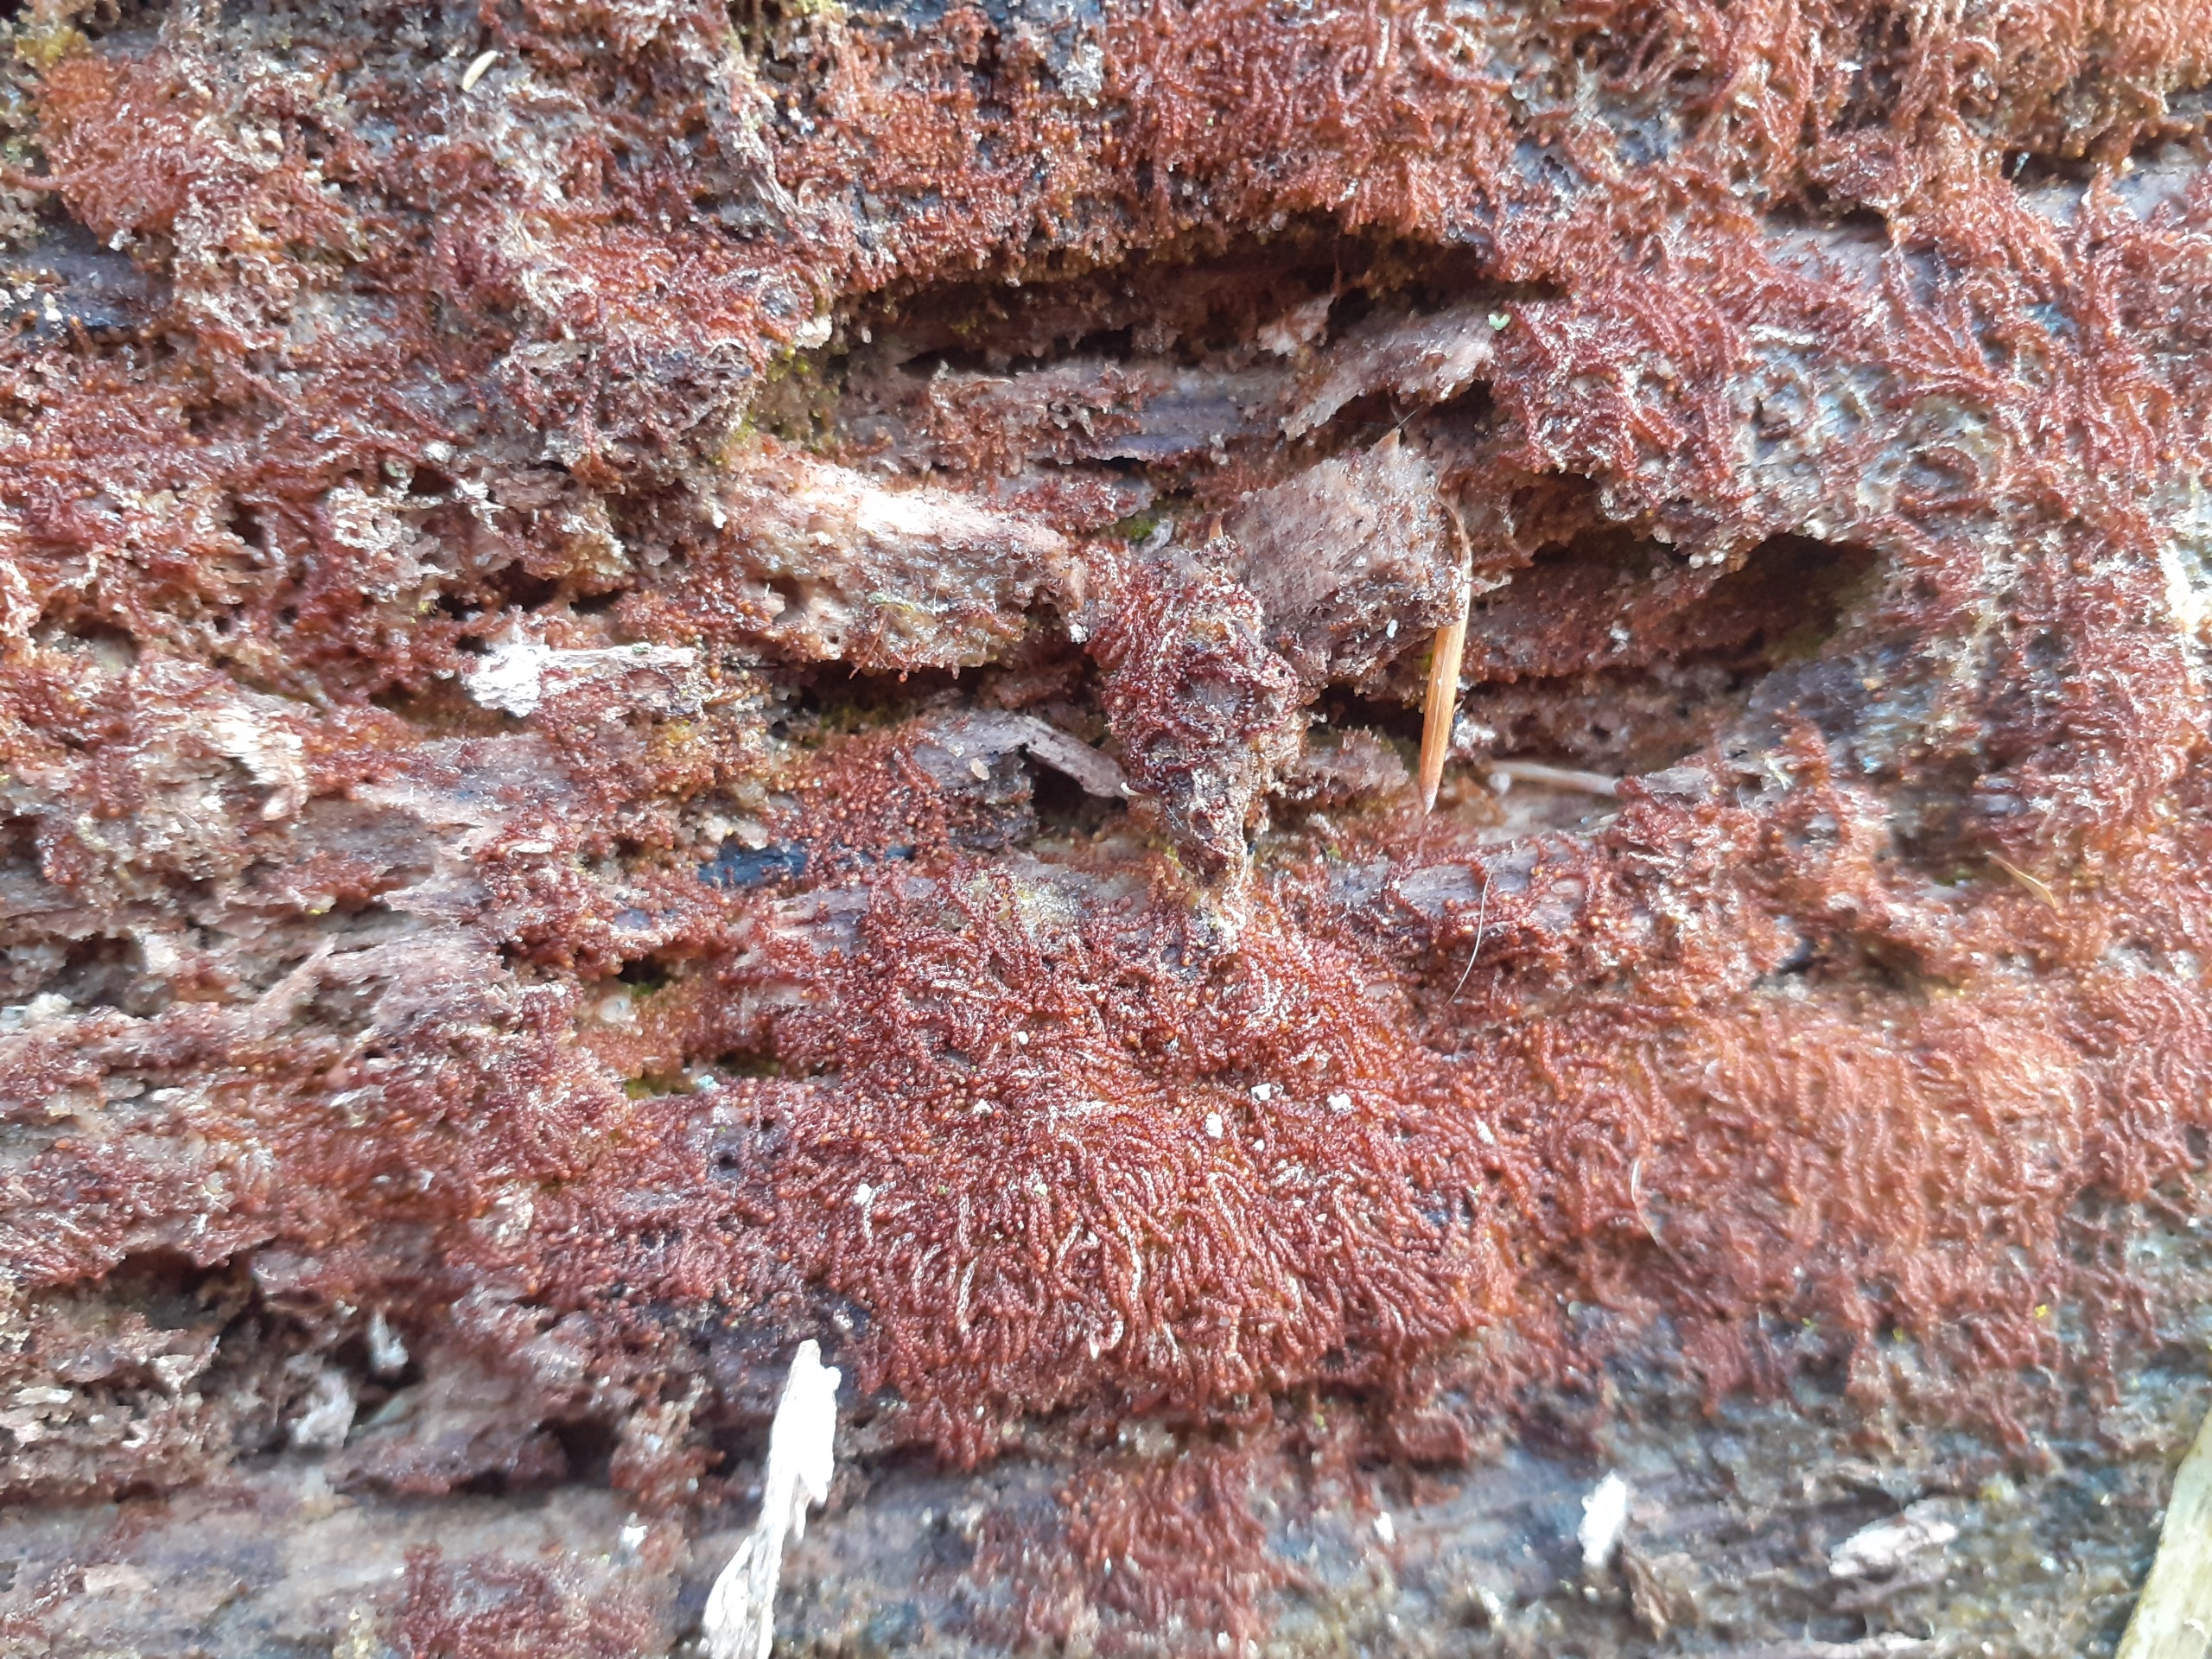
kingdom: Plantae
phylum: Marchantiophyta
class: Jungermanniopsida
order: Jungermanniales
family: Cephaloziaceae
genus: Nowellia
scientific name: Nowellia curvifolia
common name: Krumbladet stødmos
